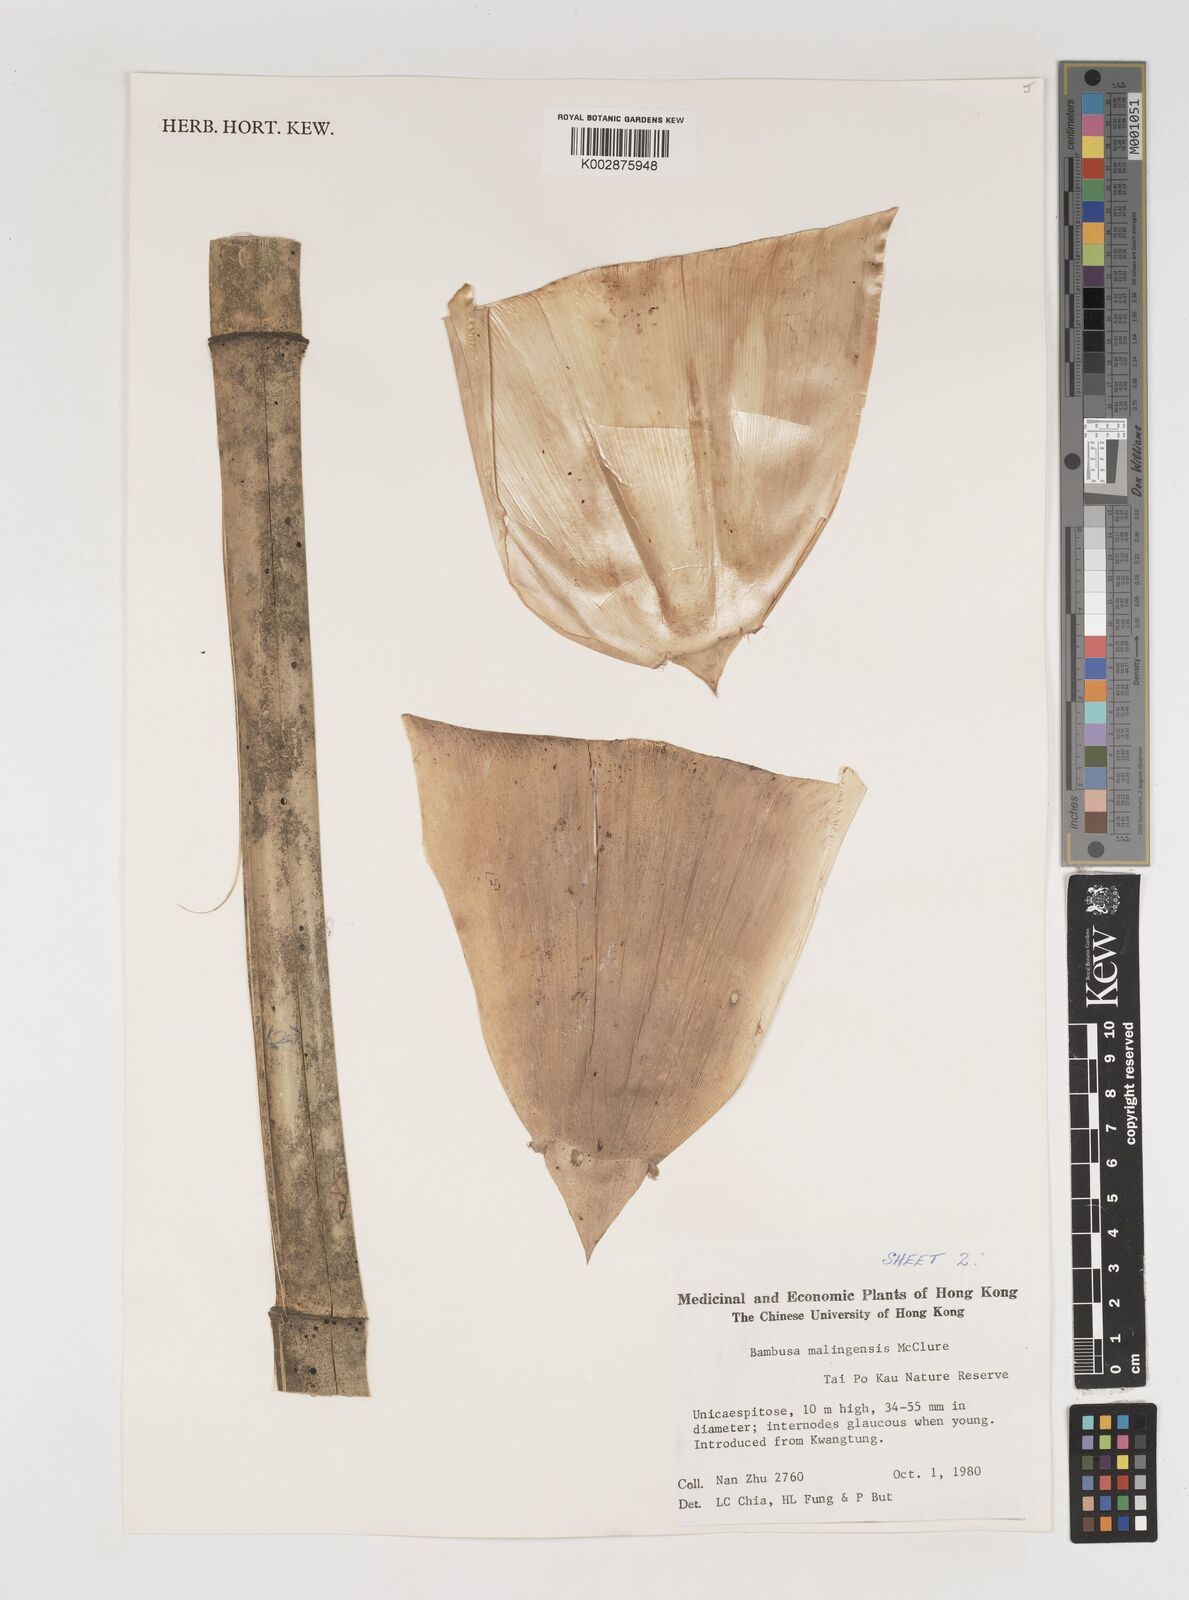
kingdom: Plantae
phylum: Tracheophyta
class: Liliopsida
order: Poales
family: Poaceae
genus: Bambusa
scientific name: Bambusa malingensis
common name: Maling bamboo
